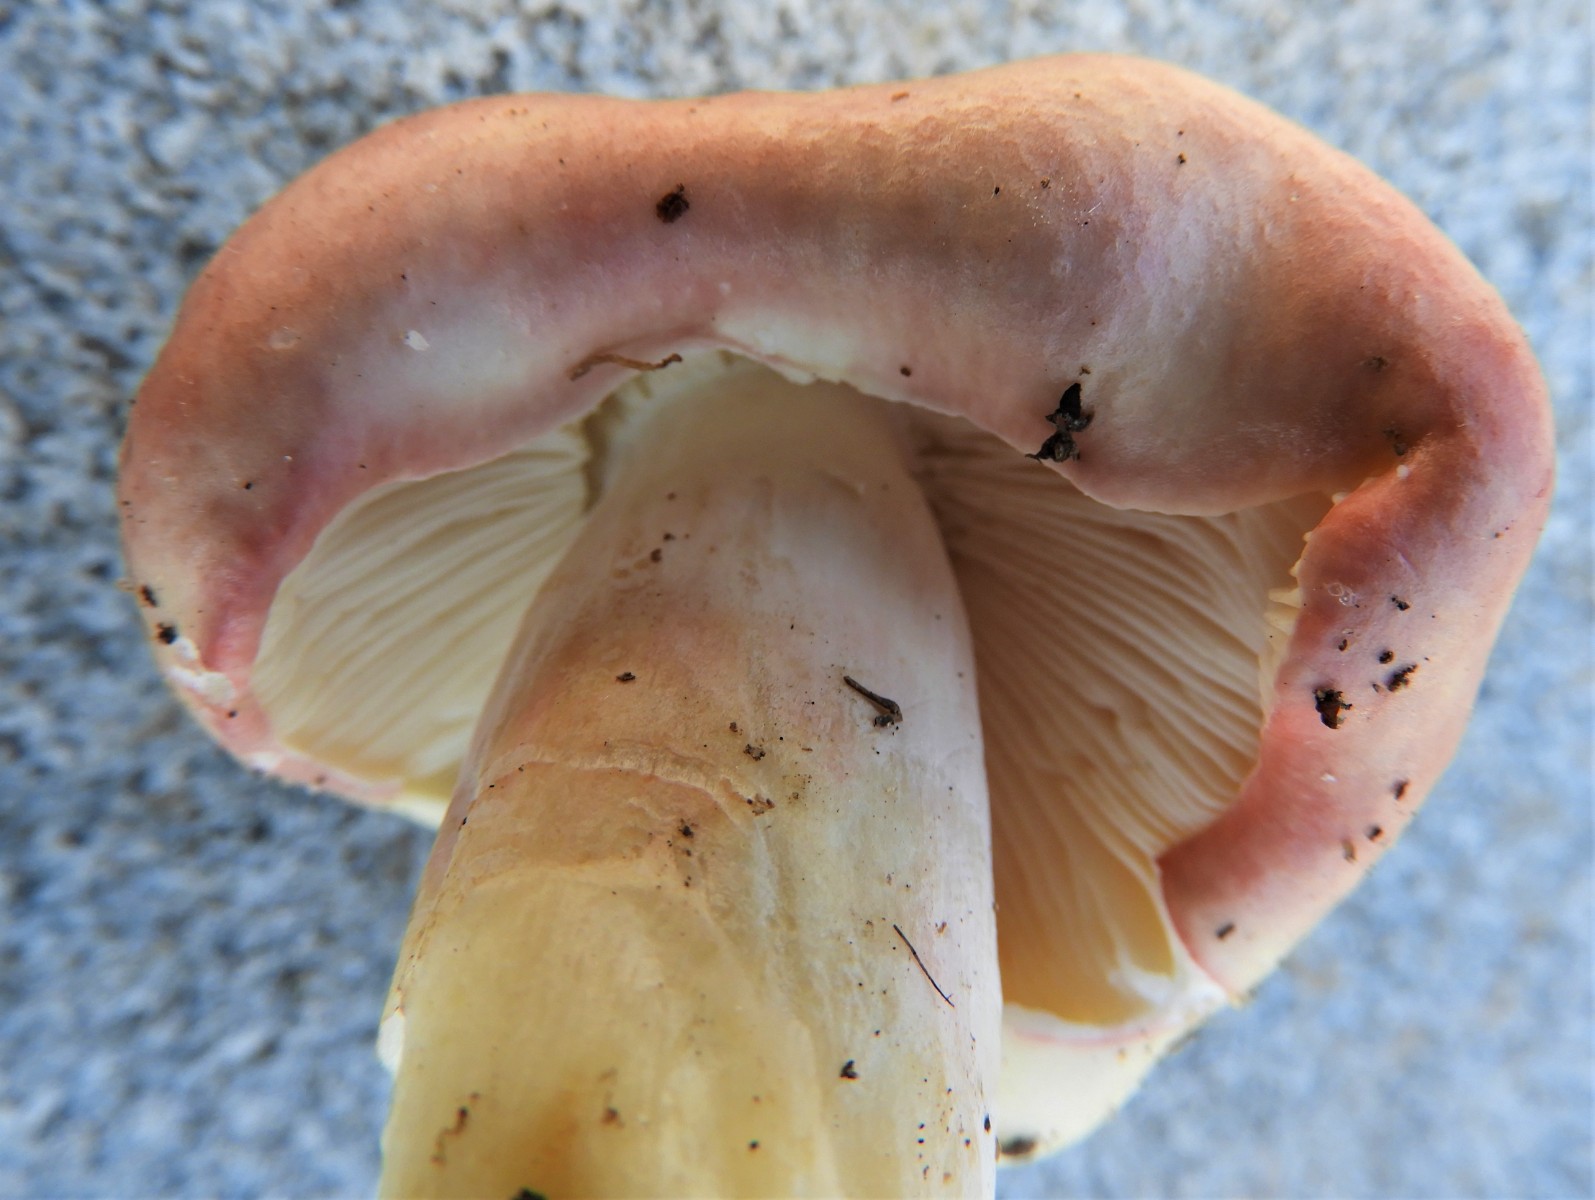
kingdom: Fungi
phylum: Basidiomycota
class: Agaricomycetes
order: Russulales
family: Russulaceae
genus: Russula
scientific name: Russula depallens
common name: falmende skørhat
